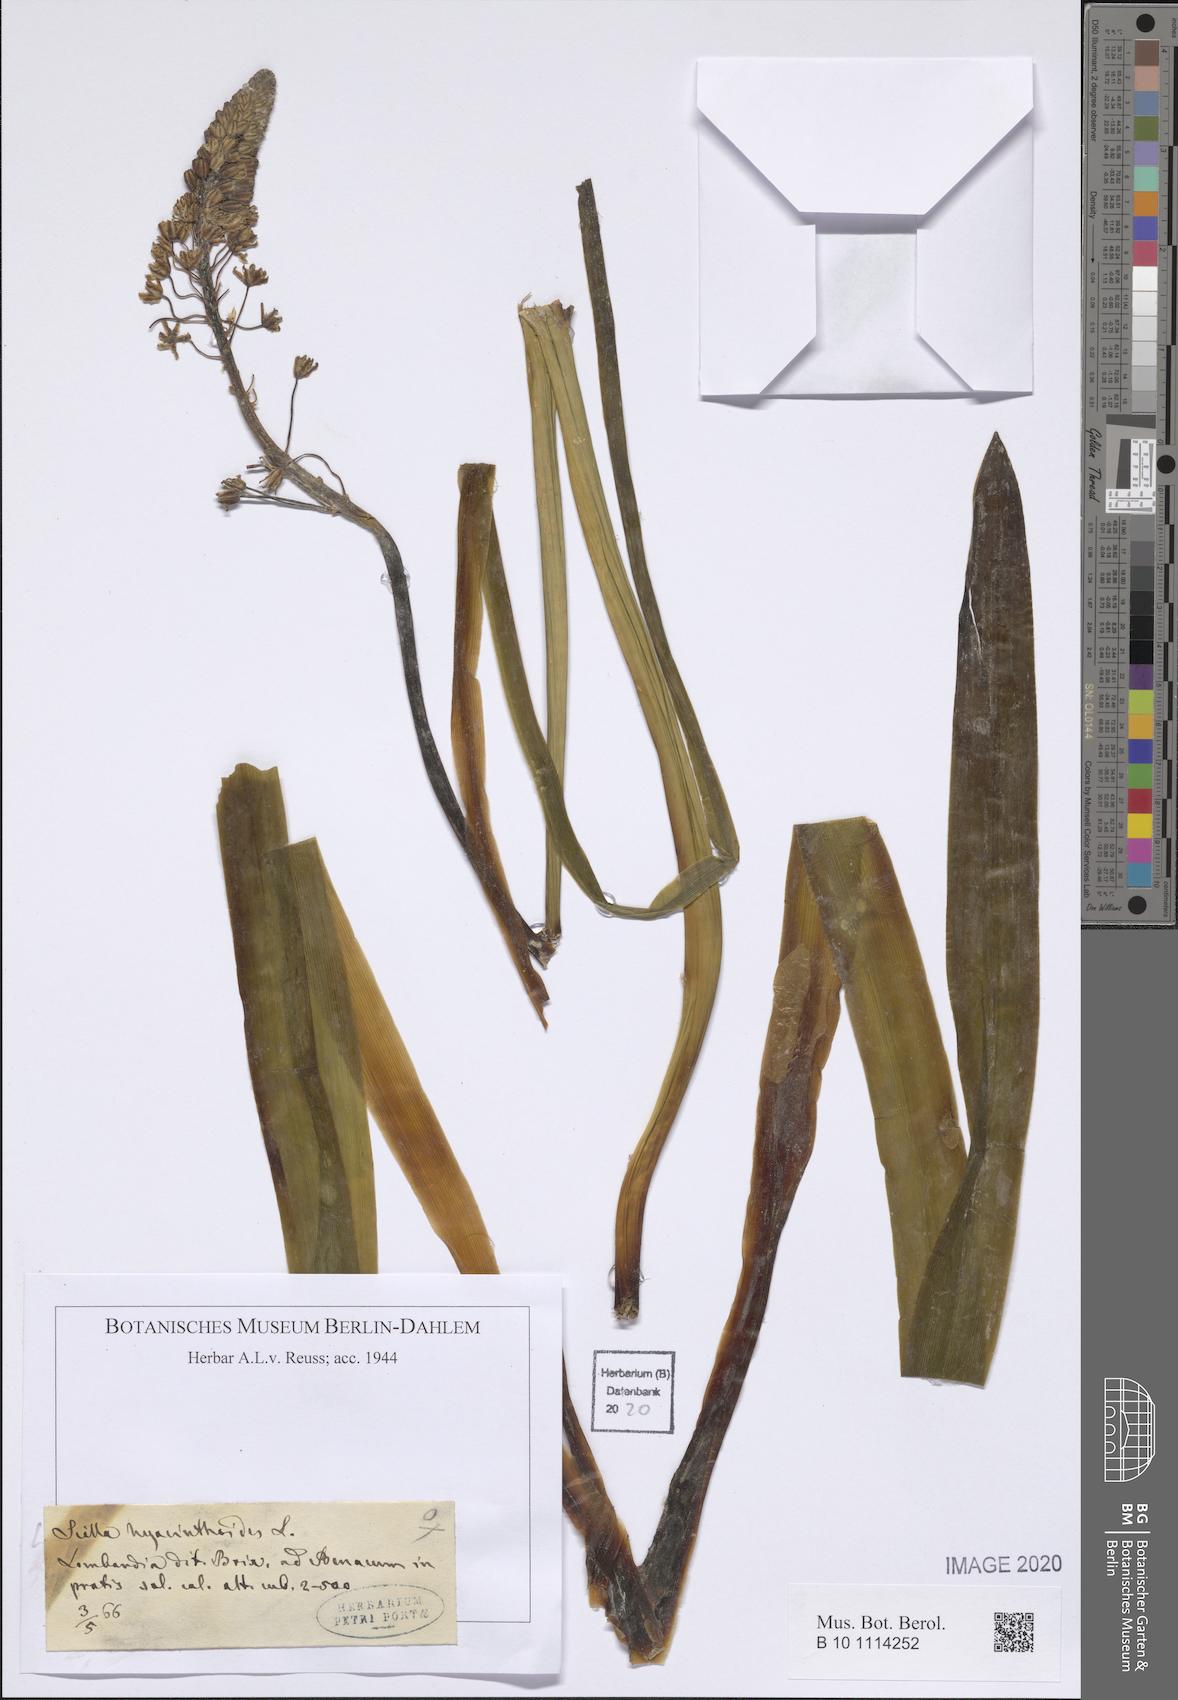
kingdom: Plantae
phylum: Tracheophyta
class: Liliopsida
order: Asparagales
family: Asparagaceae
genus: Scilla
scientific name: Scilla hyacinthoides
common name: Scilla
